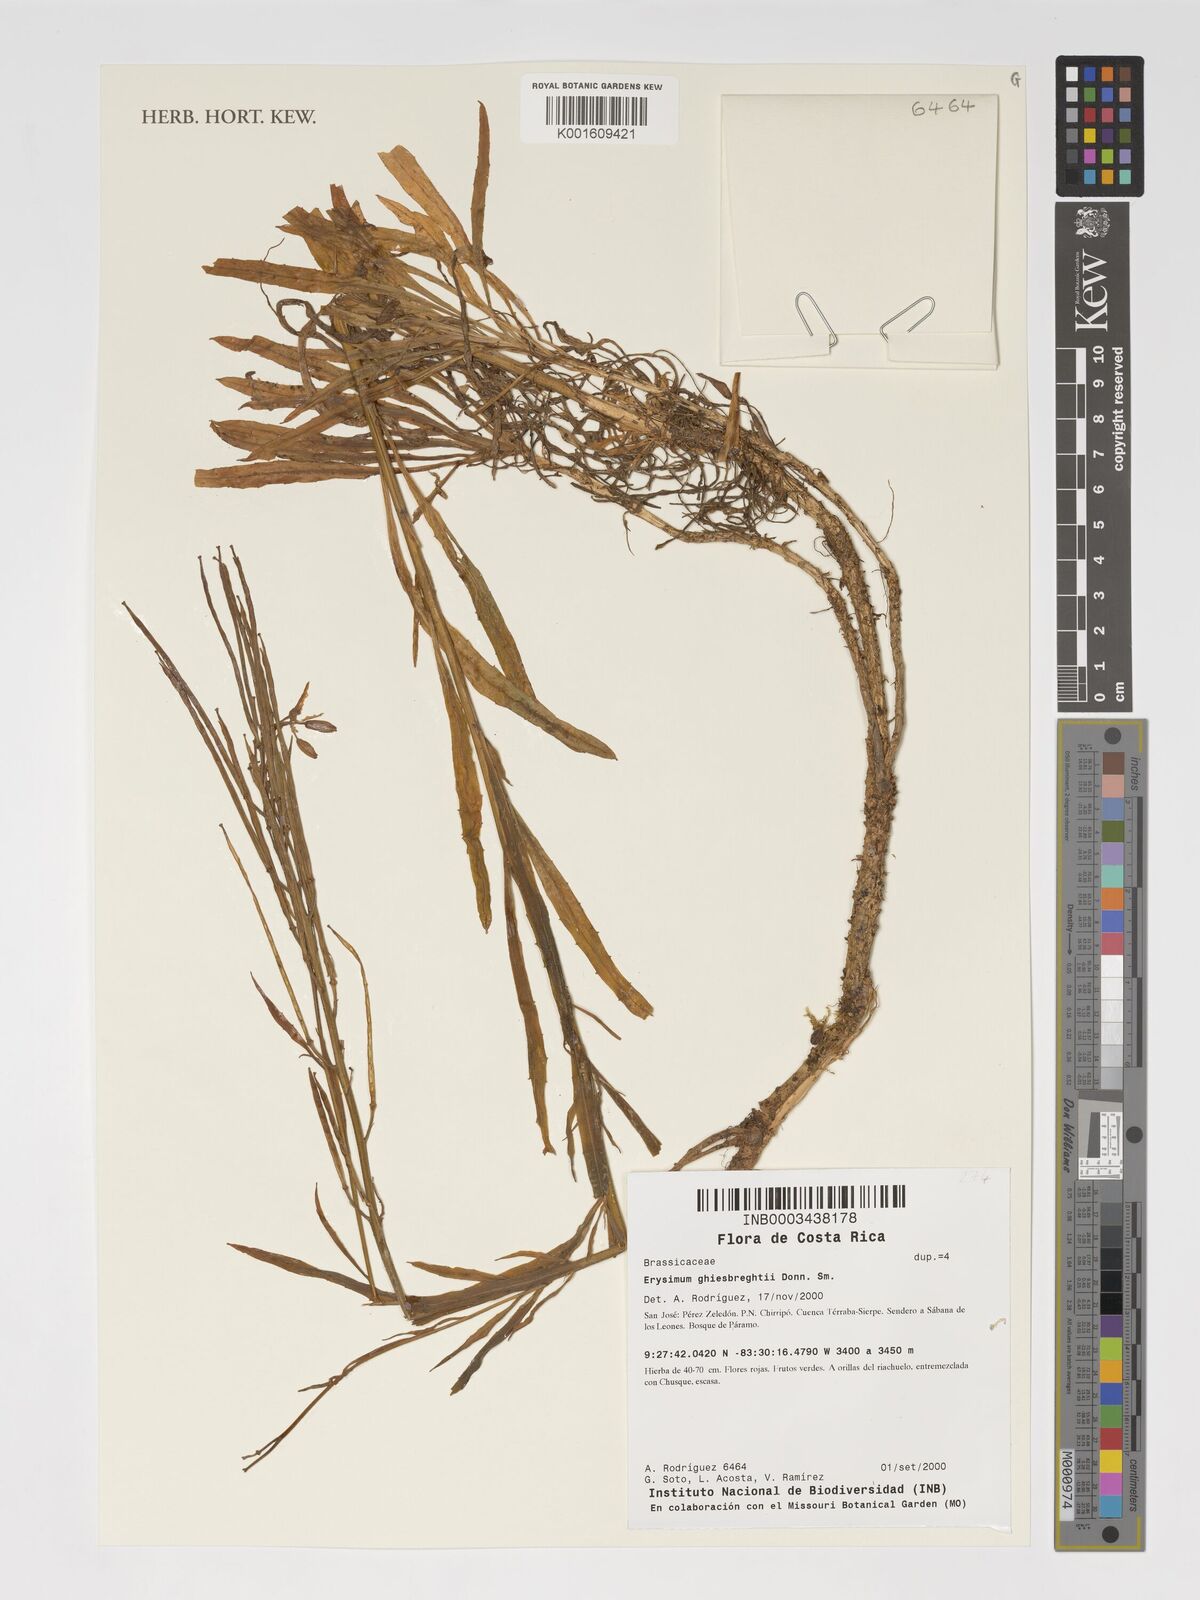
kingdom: Plantae
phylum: Tracheophyta
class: Magnoliopsida
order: Brassicales
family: Brassicaceae
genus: Erysimum
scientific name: Erysimum ghiesbreghtii
